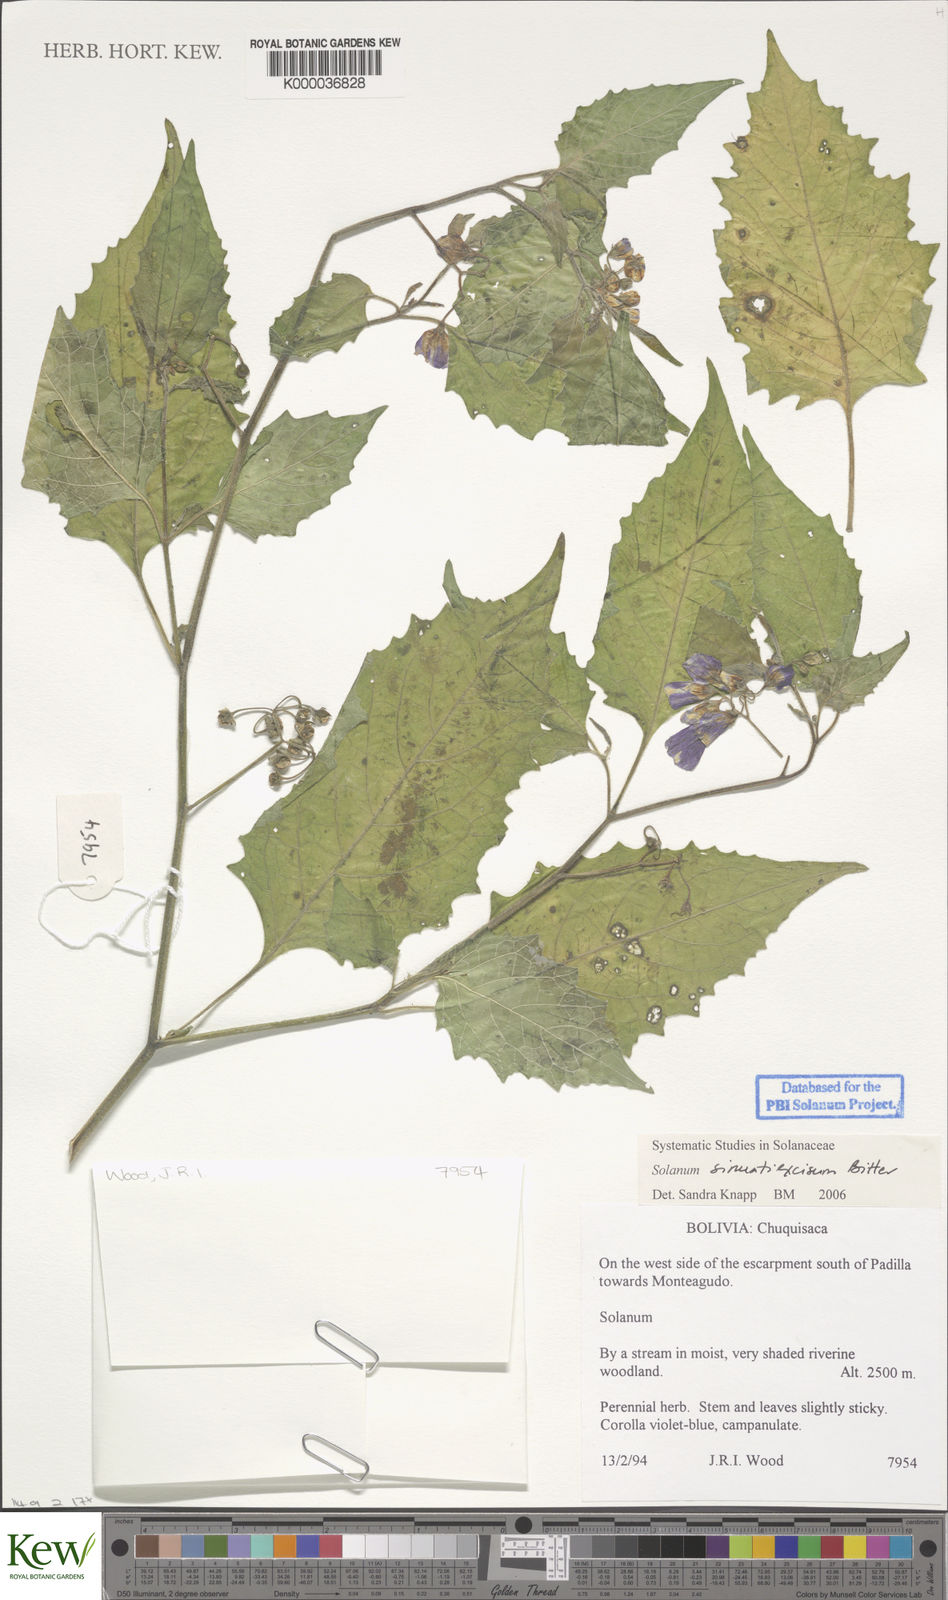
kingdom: Plantae
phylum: Tracheophyta
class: Magnoliopsida
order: Solanales
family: Solanaceae
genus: Solanum
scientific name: Solanum sinuatiexcisum
